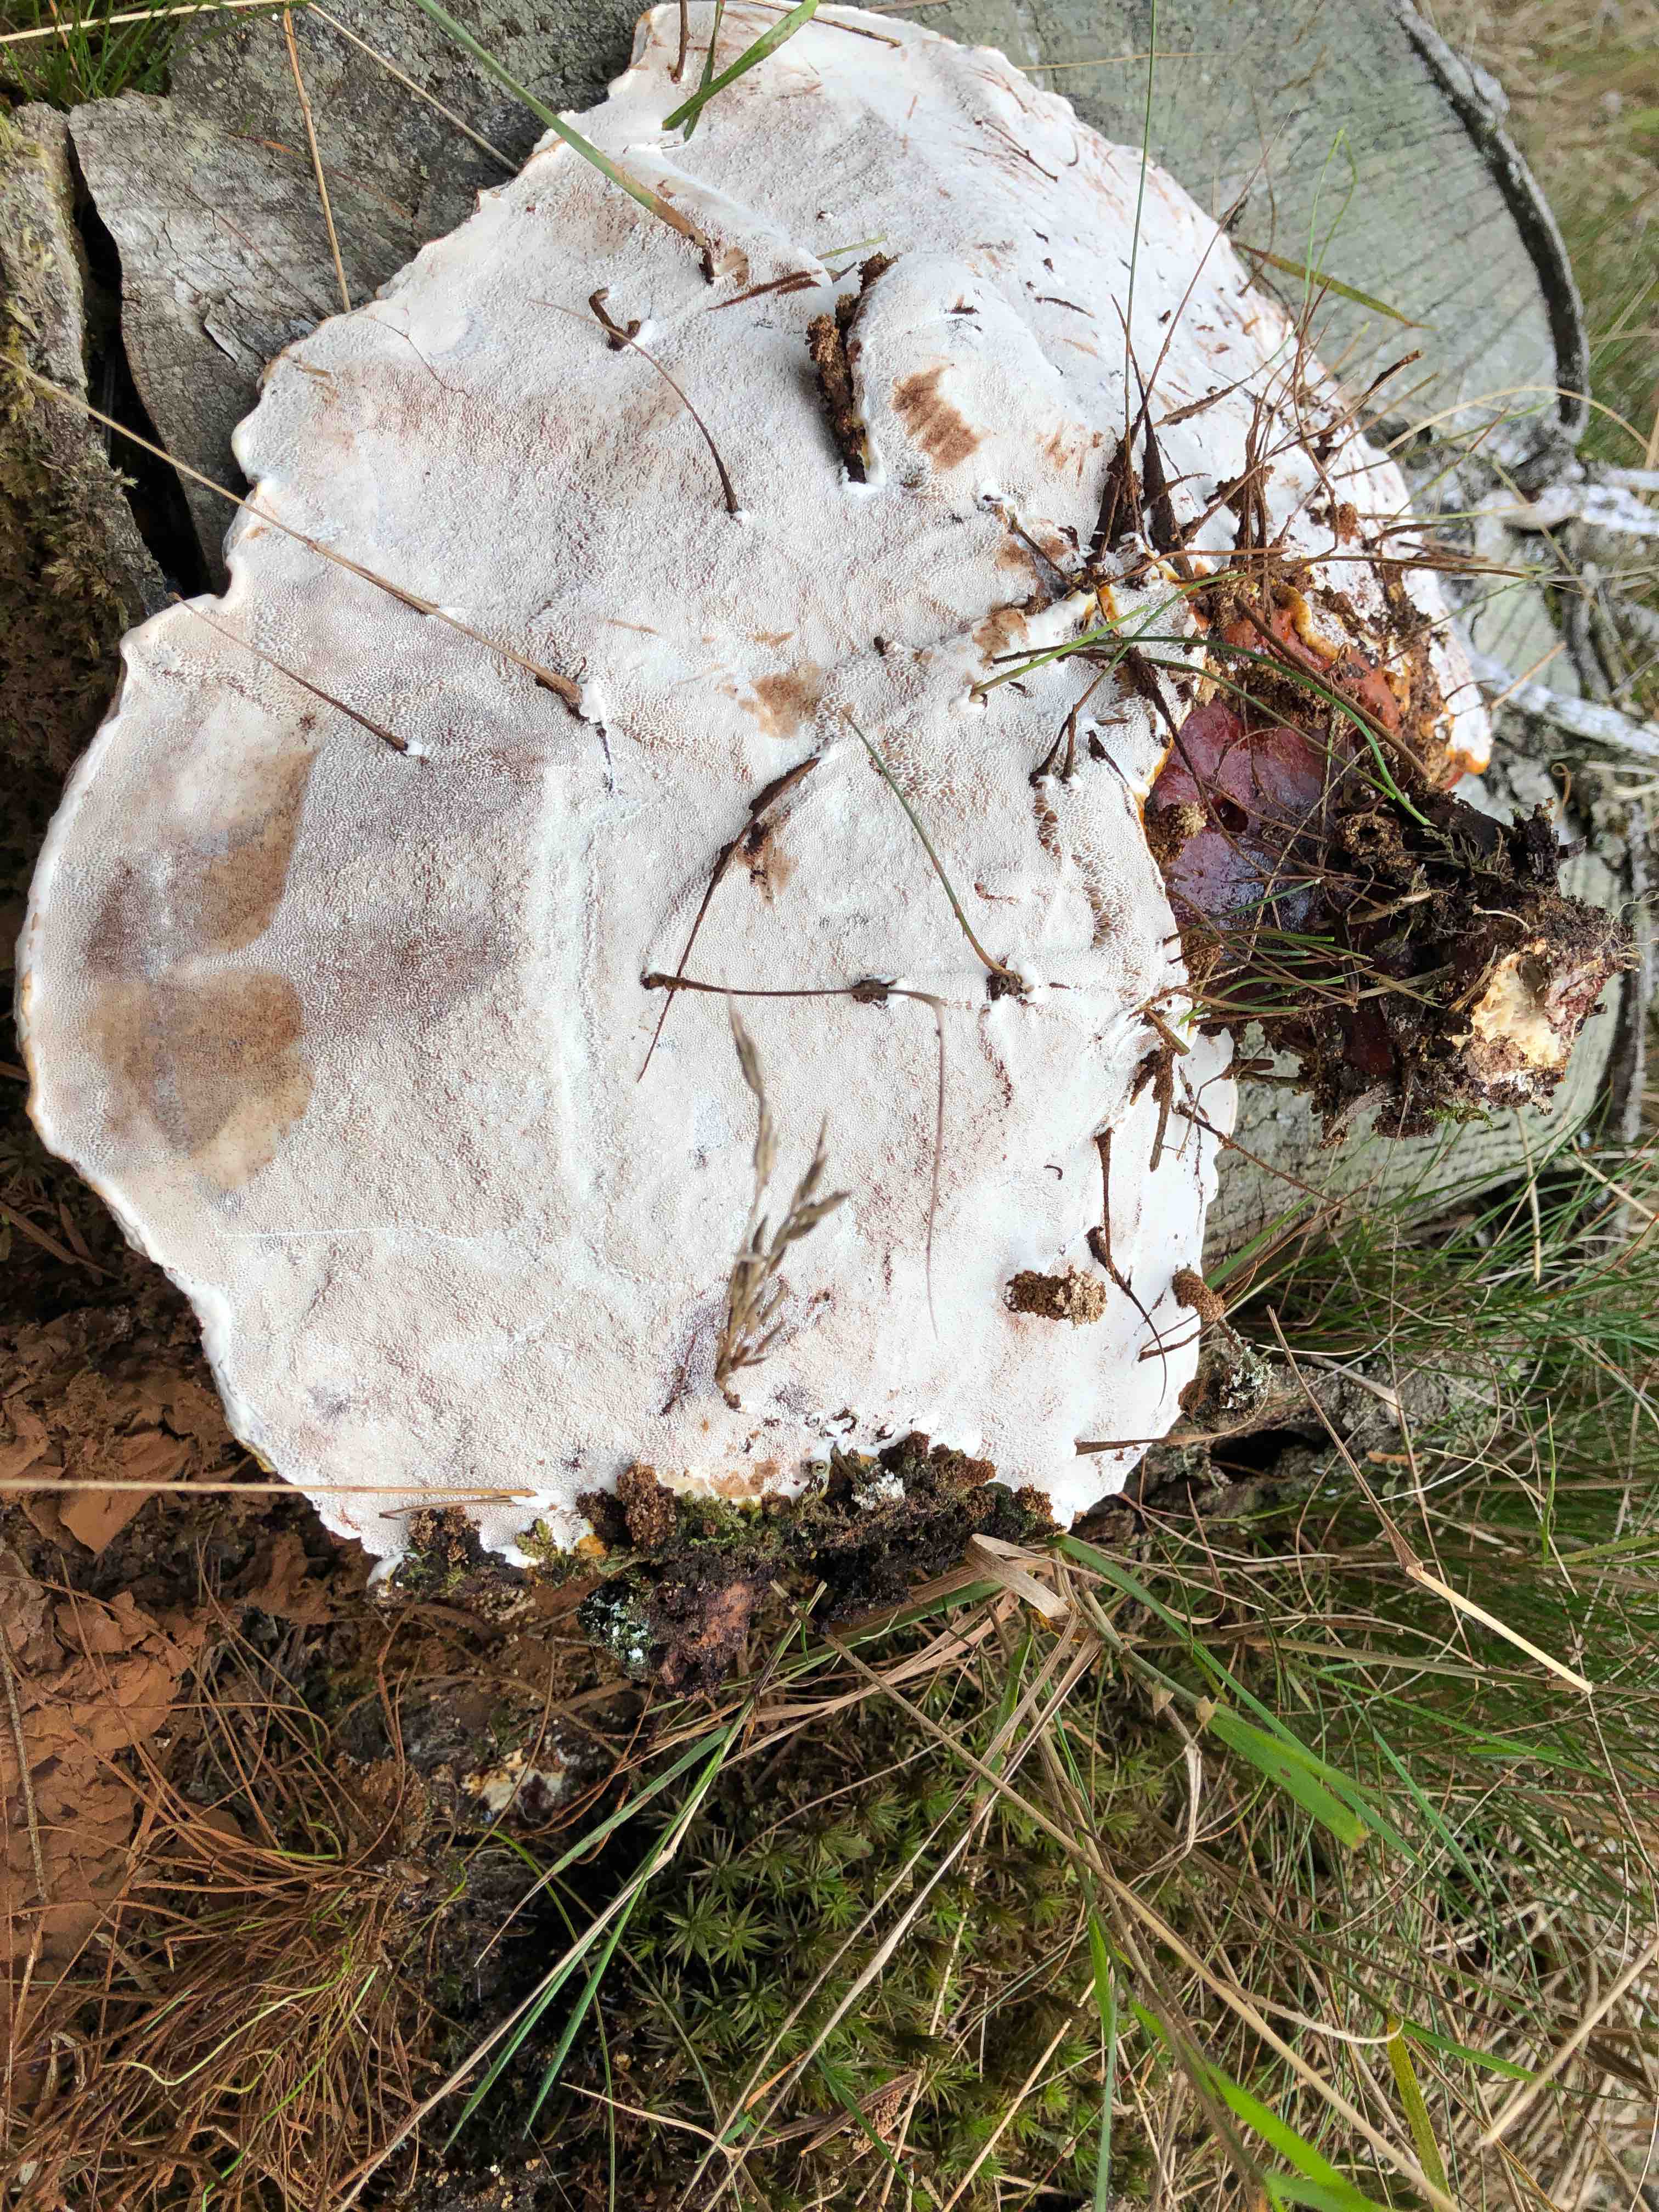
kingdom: Fungi
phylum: Basidiomycota
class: Agaricomycetes
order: Polyporales
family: Polyporaceae
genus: Ganoderma
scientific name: Ganoderma lucidum
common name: skinnende lakporesvamp
